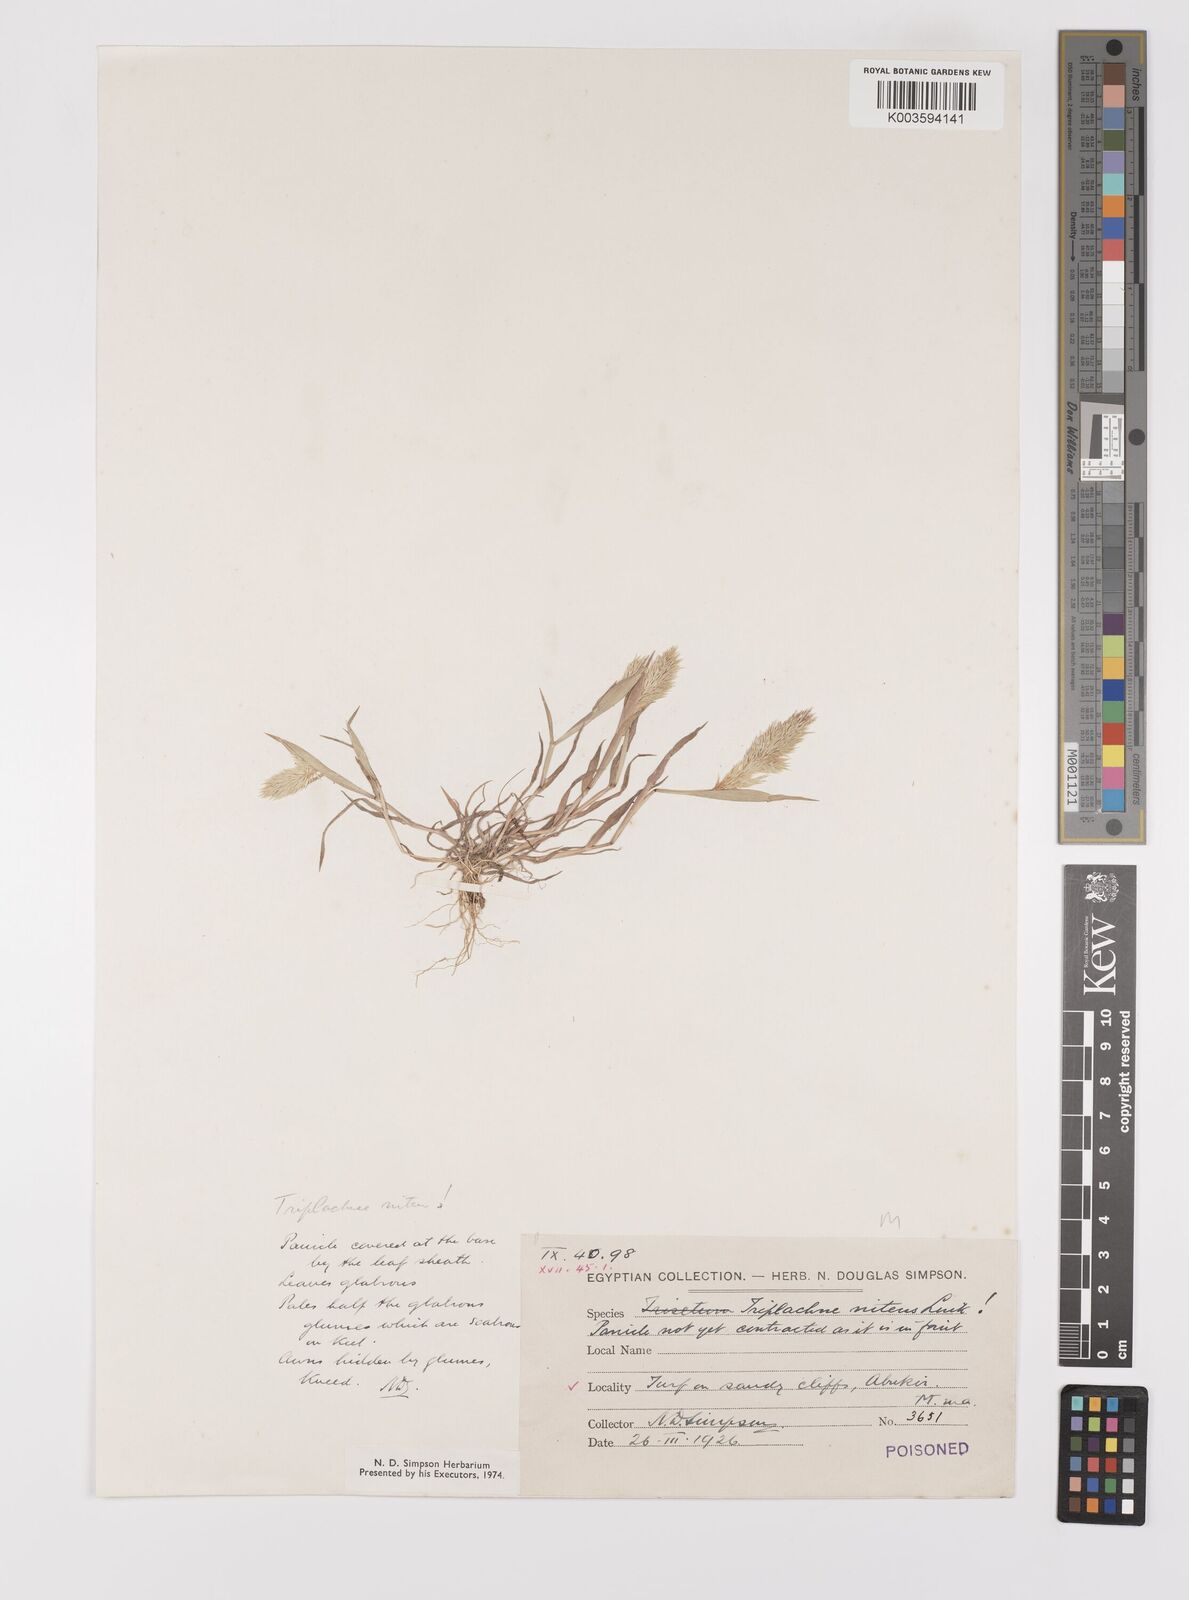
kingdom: Plantae
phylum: Tracheophyta
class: Liliopsida
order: Poales
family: Poaceae
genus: Triplachne
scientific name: Triplachne nitens
